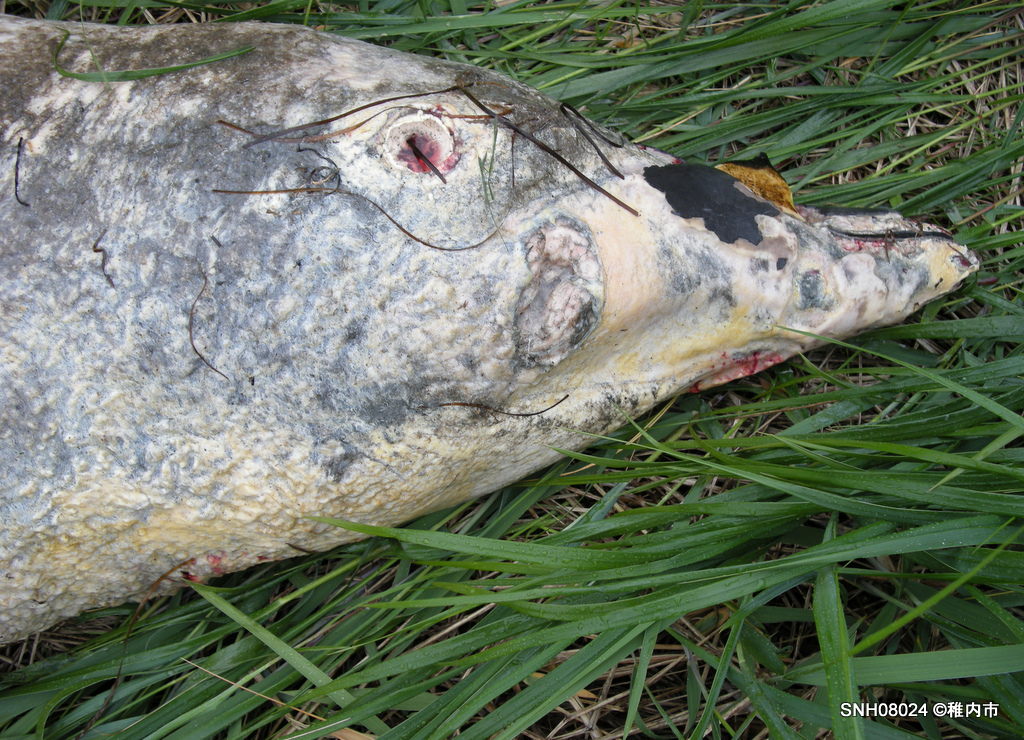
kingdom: Animalia
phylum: Chordata
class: Mammalia
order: Cetacea
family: Hyperoodontidae
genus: Mesoplodon
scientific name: Mesoplodon stejnegeri
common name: Stejneger's beaked whale
